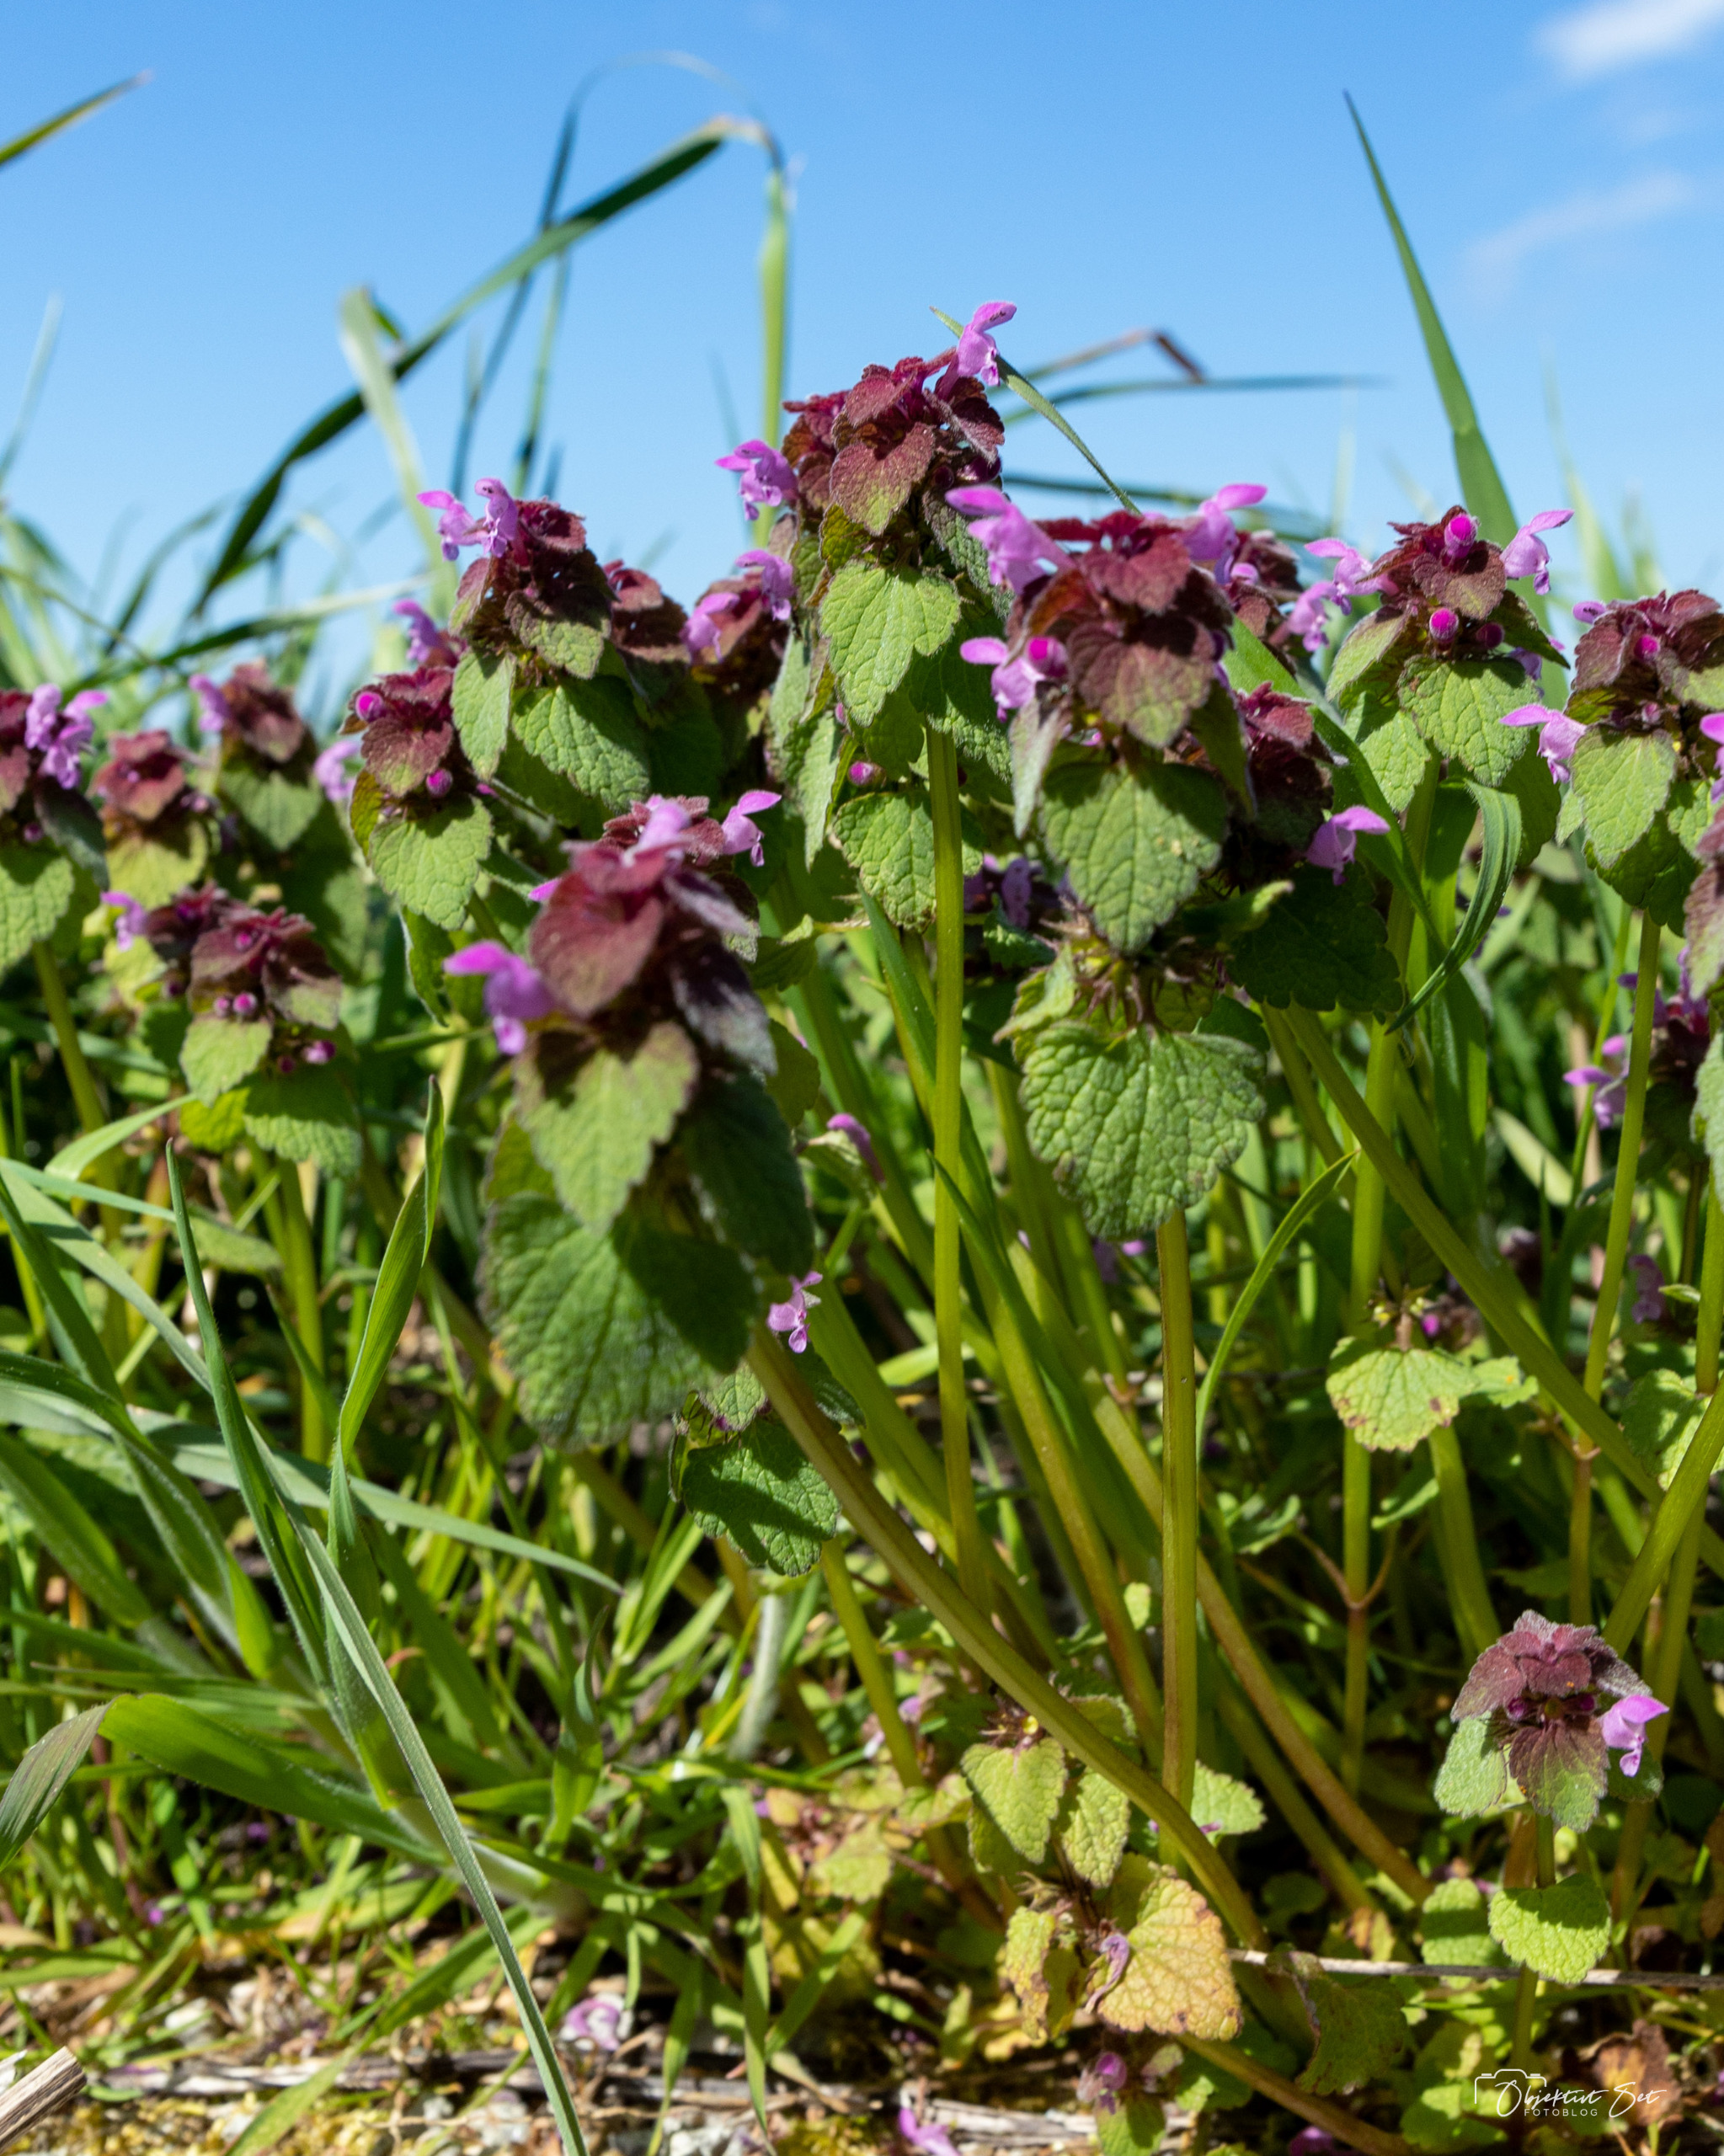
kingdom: Plantae
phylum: Tracheophyta
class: Magnoliopsida
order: Lamiales
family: Lamiaceae
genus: Lamium
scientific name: Lamium purpureum
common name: Rød tvetand
